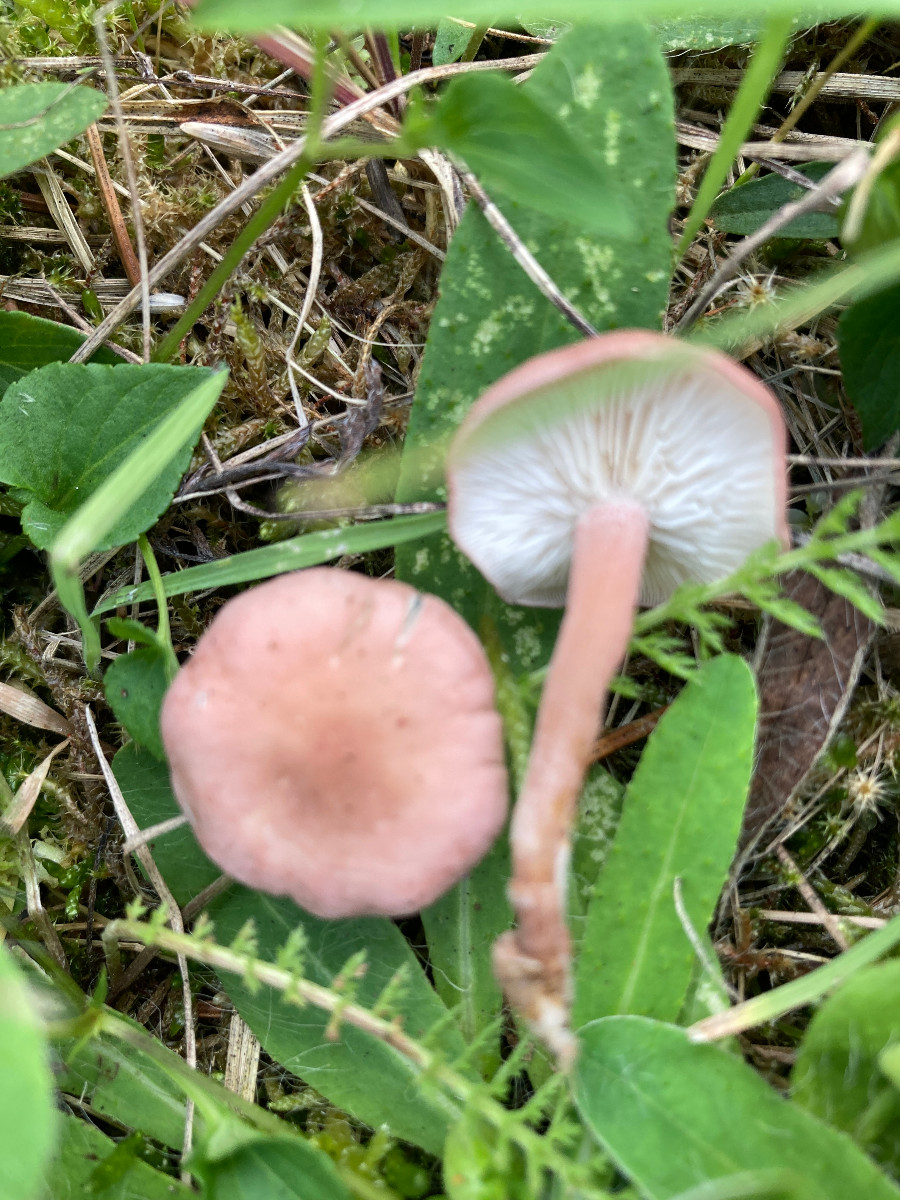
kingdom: Fungi
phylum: Basidiomycota
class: Agaricomycetes
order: Agaricales
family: Lyophyllaceae
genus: Calocybe
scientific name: Calocybe carnea
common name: rosa fagerhat
